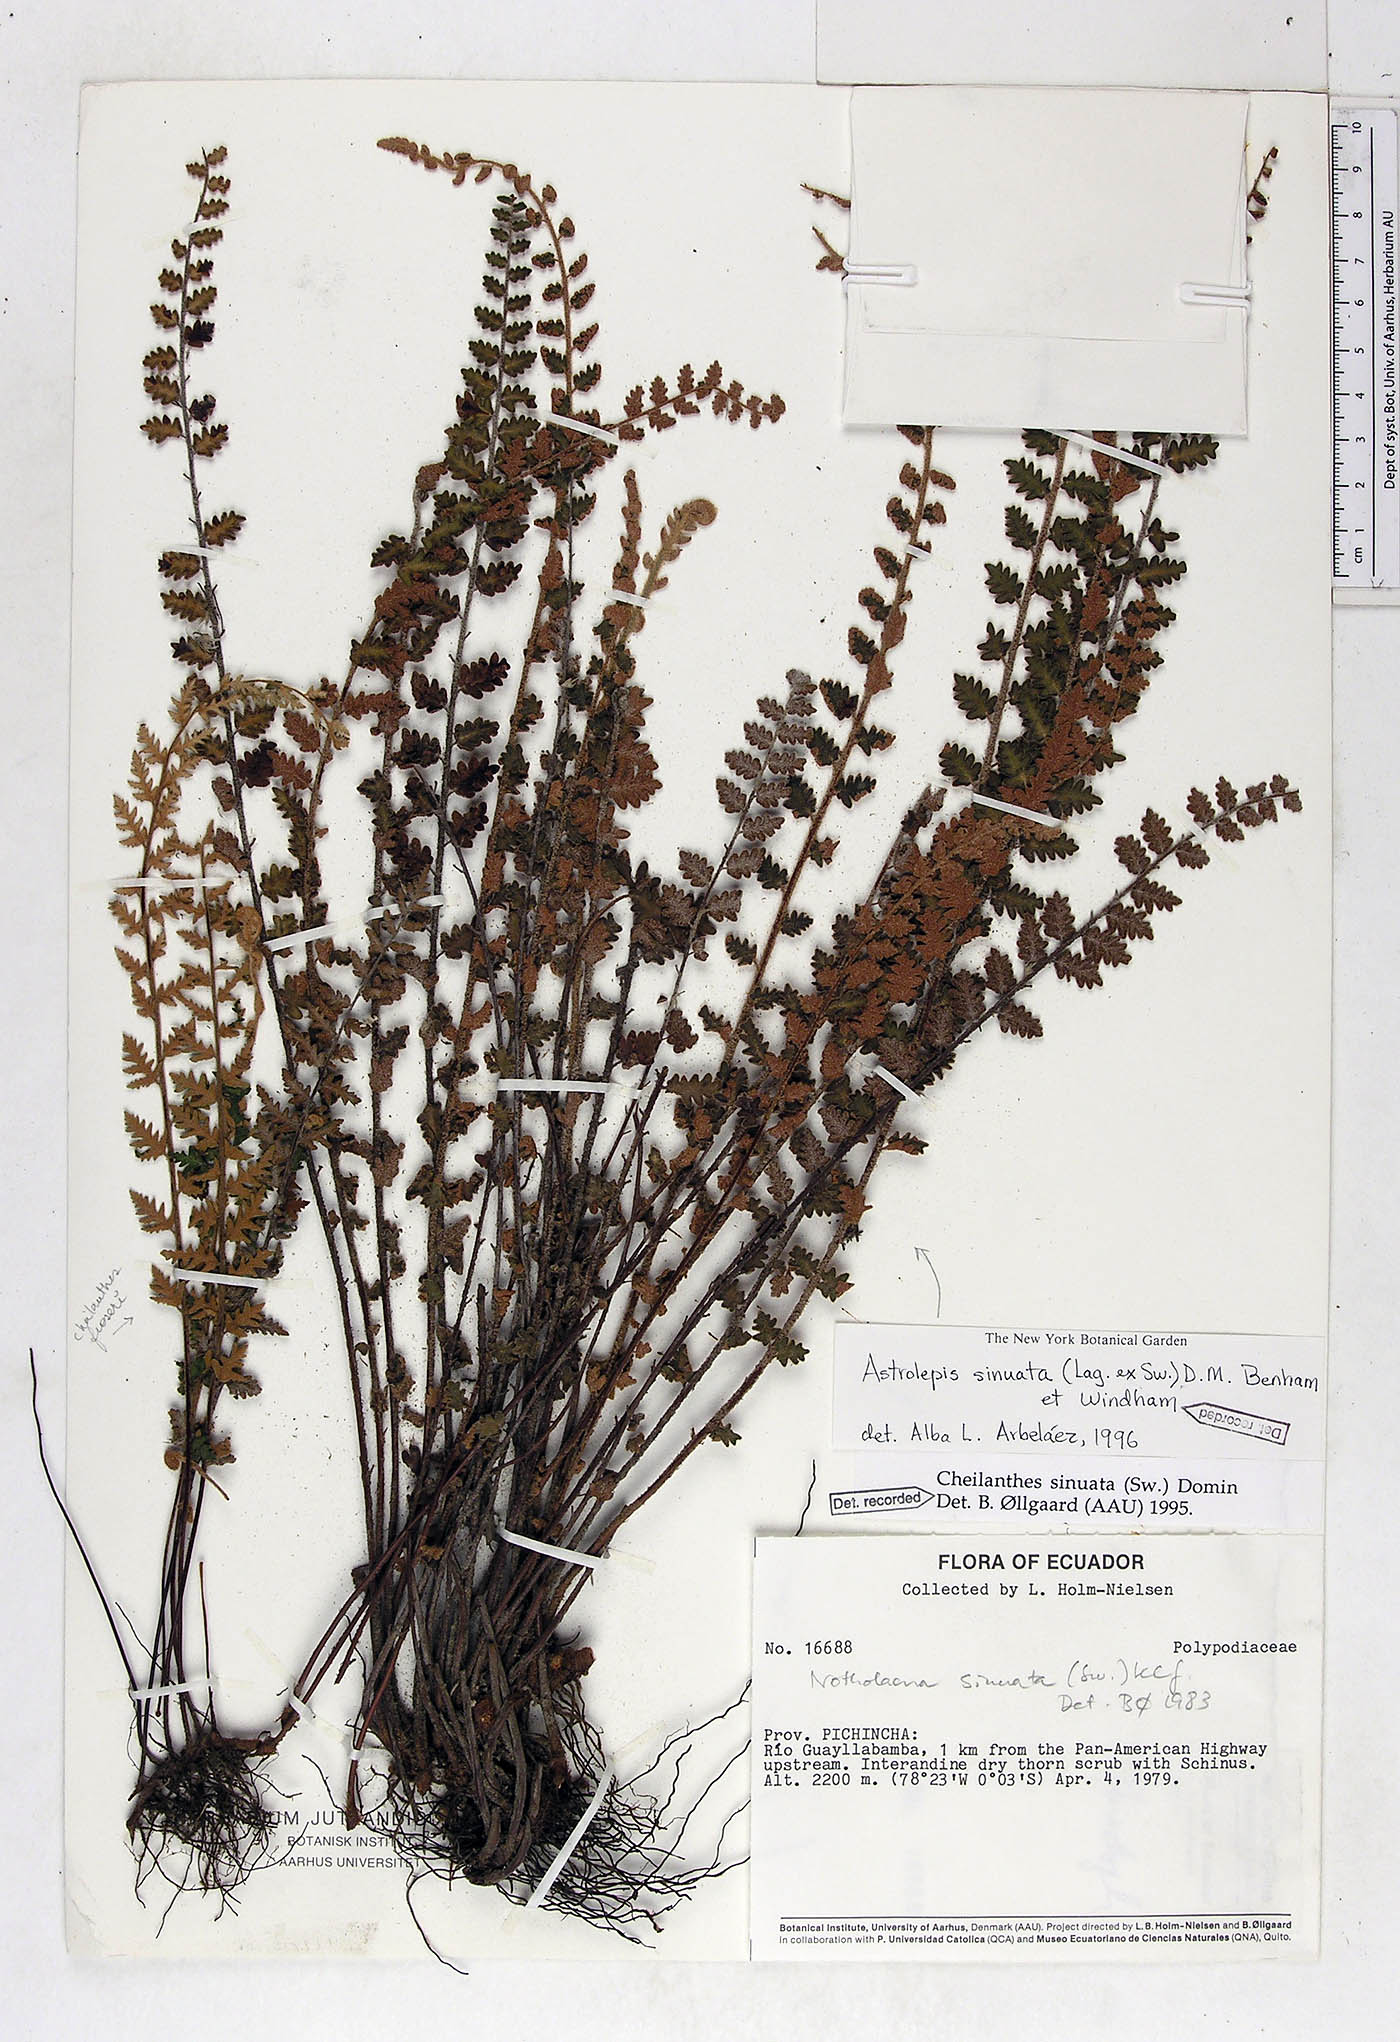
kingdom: Plantae
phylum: Tracheophyta
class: Polypodiopsida
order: Polypodiales
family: Pteridaceae
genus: Astrolepis
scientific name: Astrolepis sinuata
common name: Wavy scaly cloakfern
